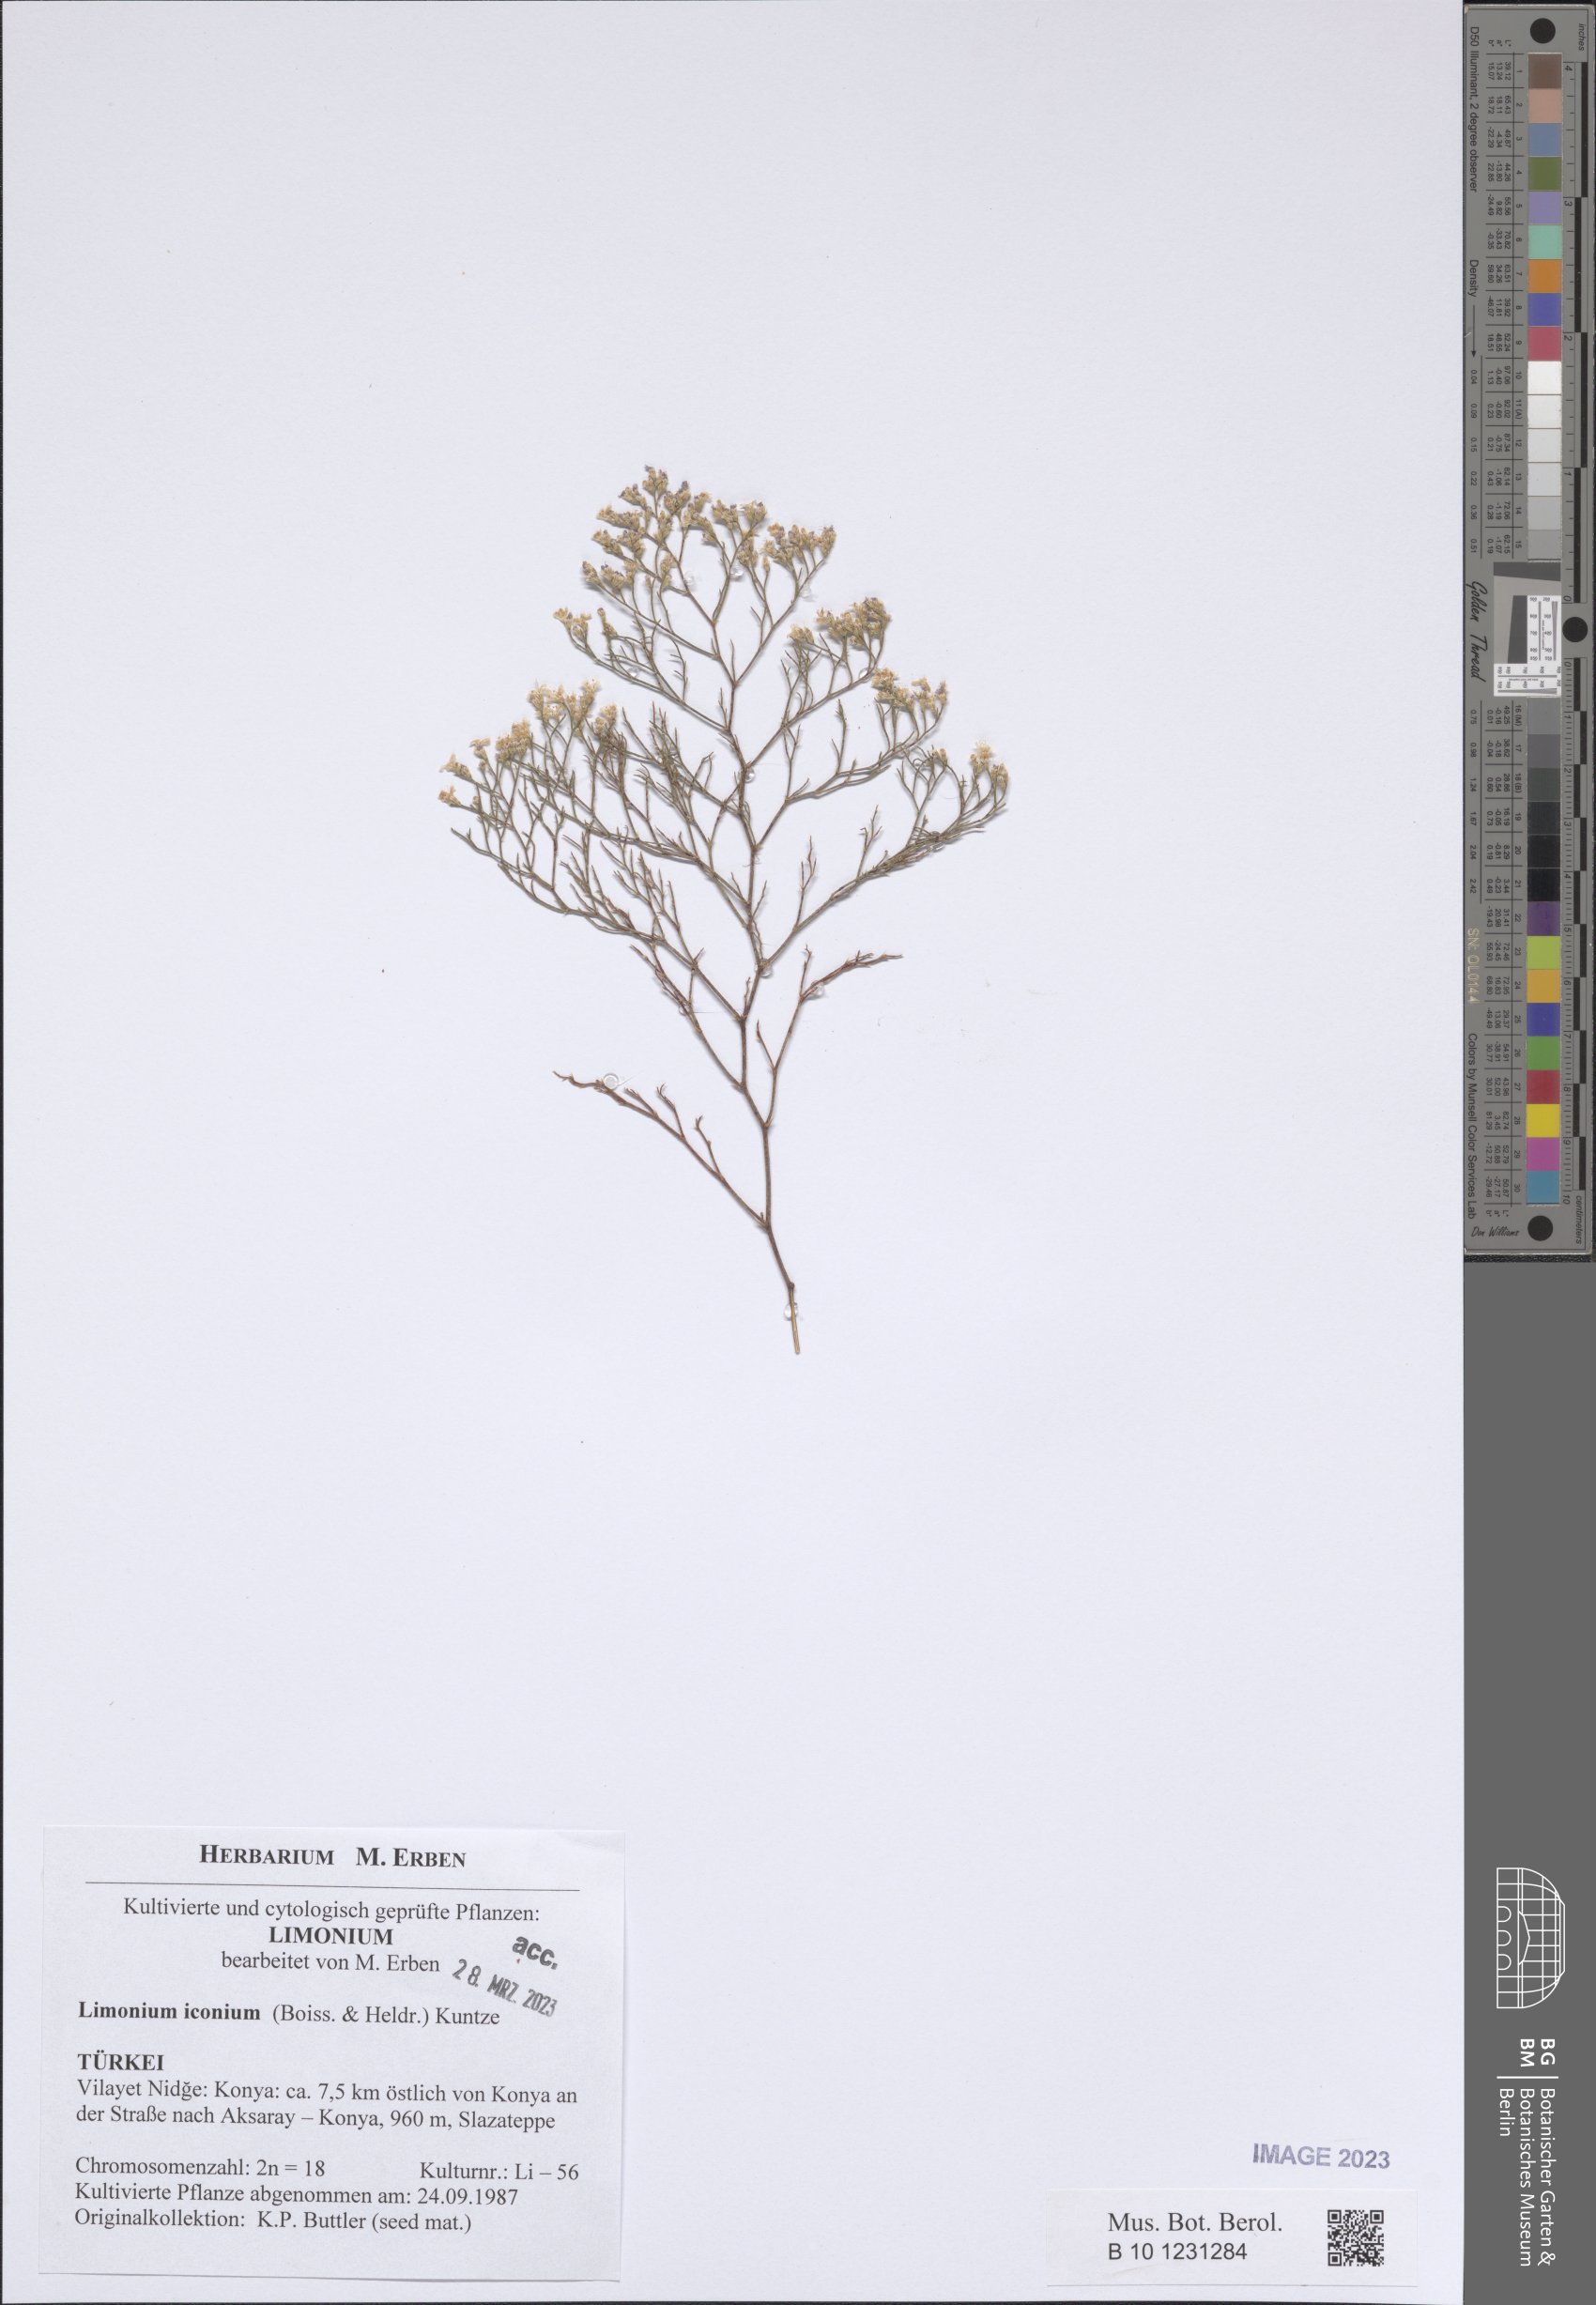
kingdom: Plantae
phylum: Tracheophyta
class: Magnoliopsida
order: Caryophyllales
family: Plumbaginaceae
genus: Limonium
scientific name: Limonium iconium
